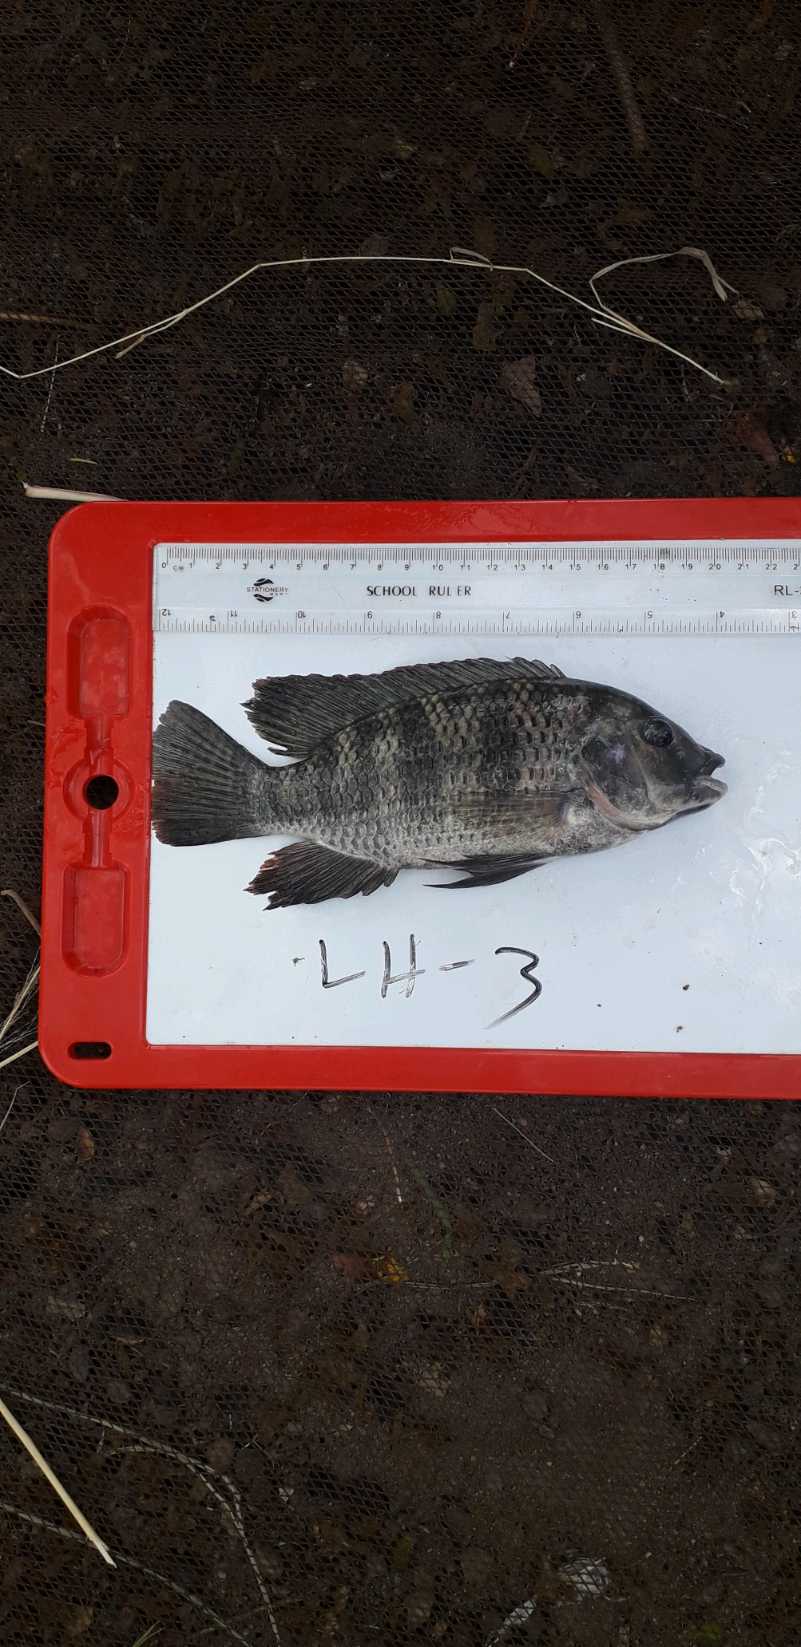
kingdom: Animalia
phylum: Chordata
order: Perciformes
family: Cichlidae
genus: Coptodon
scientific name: Coptodon rendalli
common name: Redbreast tilapia
